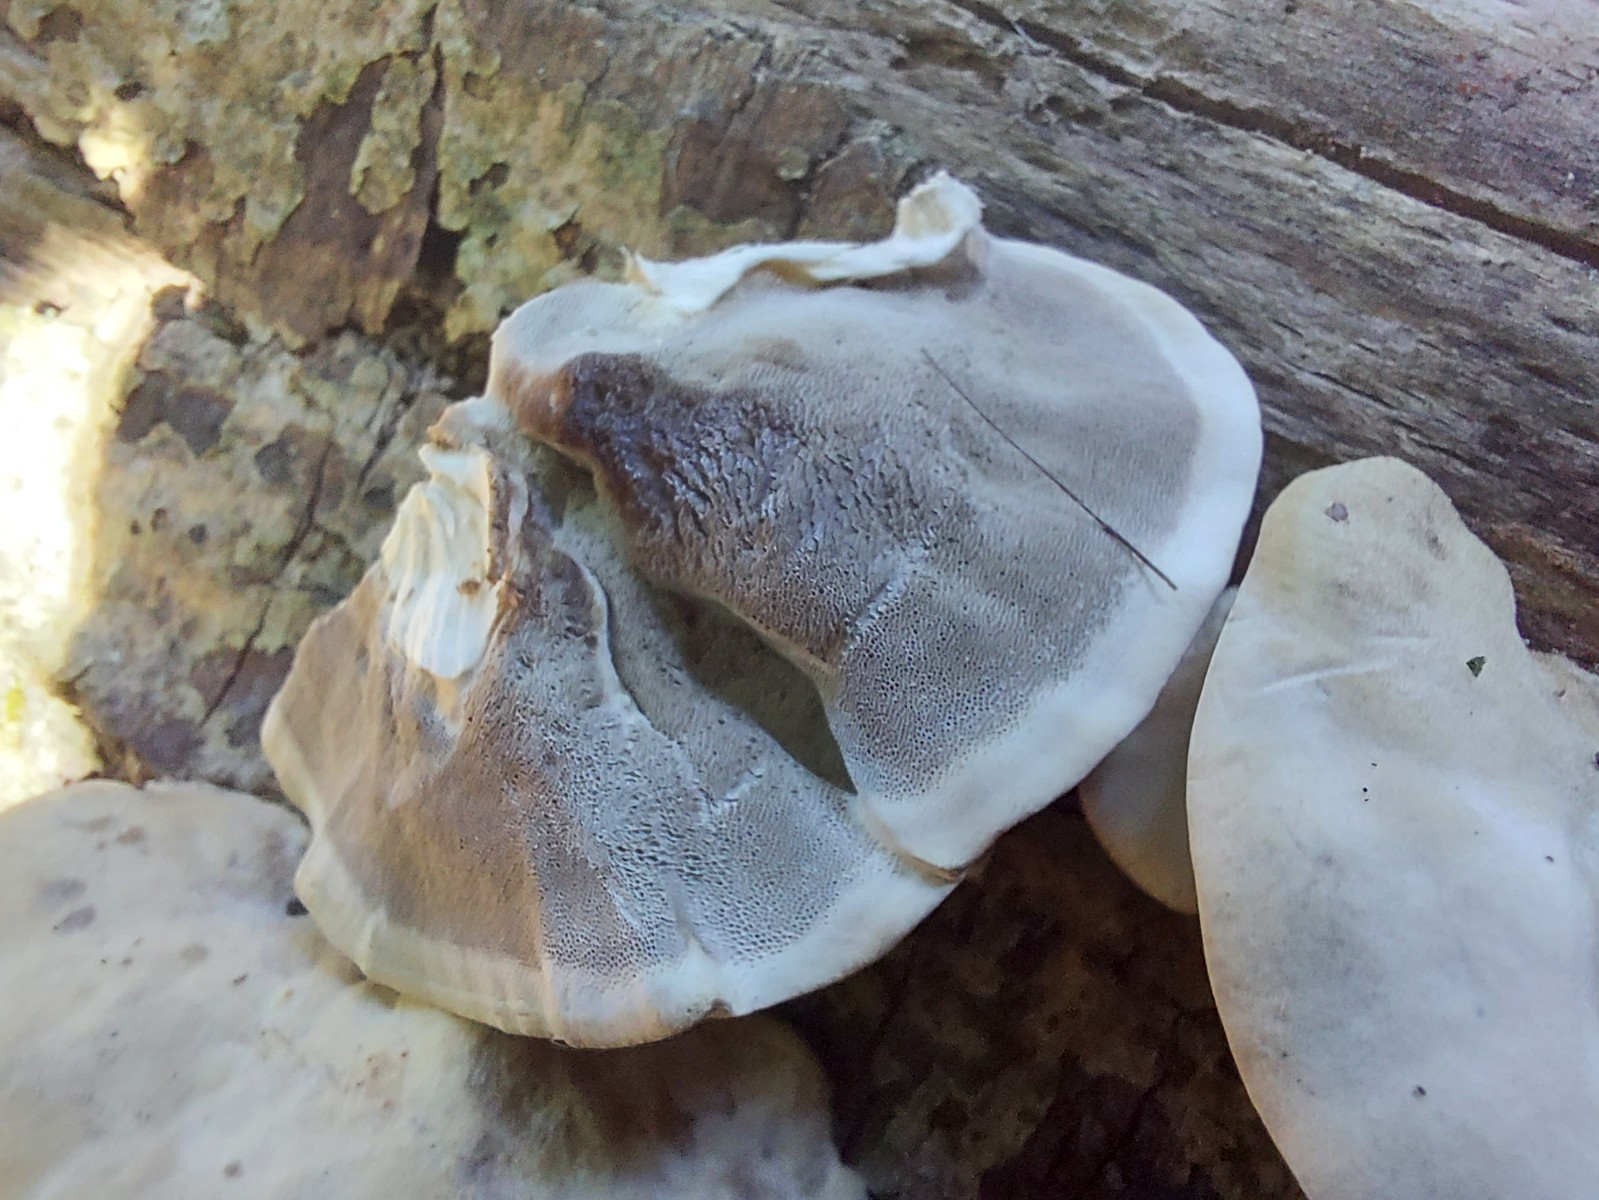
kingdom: Fungi
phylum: Basidiomycota
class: Agaricomycetes
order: Polyporales
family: Phanerochaetaceae
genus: Bjerkandera
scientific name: Bjerkandera adusta
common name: sveden sodporesvamp
